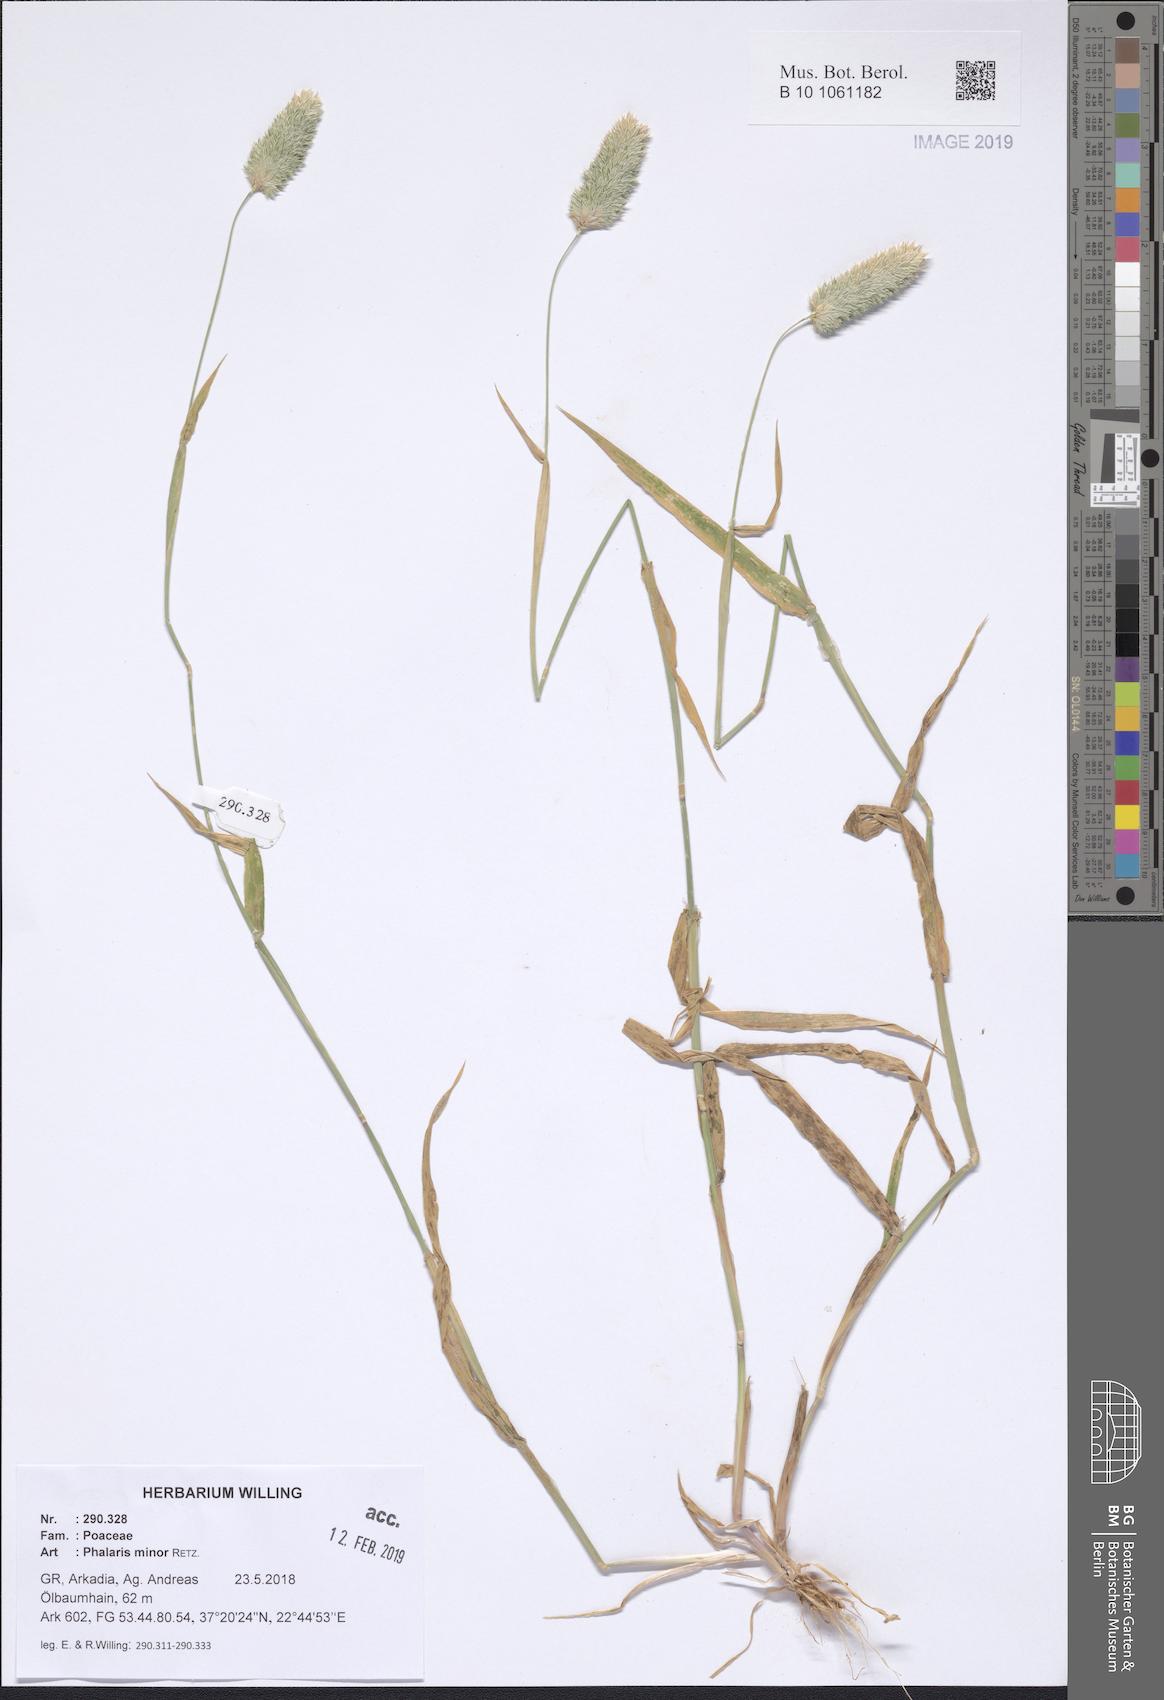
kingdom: Plantae
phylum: Tracheophyta
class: Liliopsida
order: Poales
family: Poaceae
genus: Phalaris
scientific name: Phalaris minor
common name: Littleseed canarygrass
